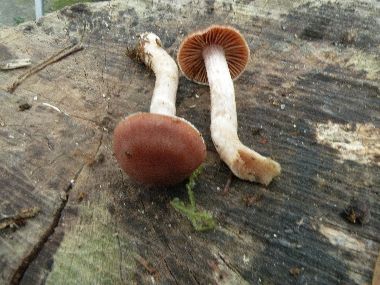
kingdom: Fungi
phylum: Basidiomycota
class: Agaricomycetes
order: Agaricales
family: Cortinariaceae
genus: Cortinarius
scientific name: Cortinarius
